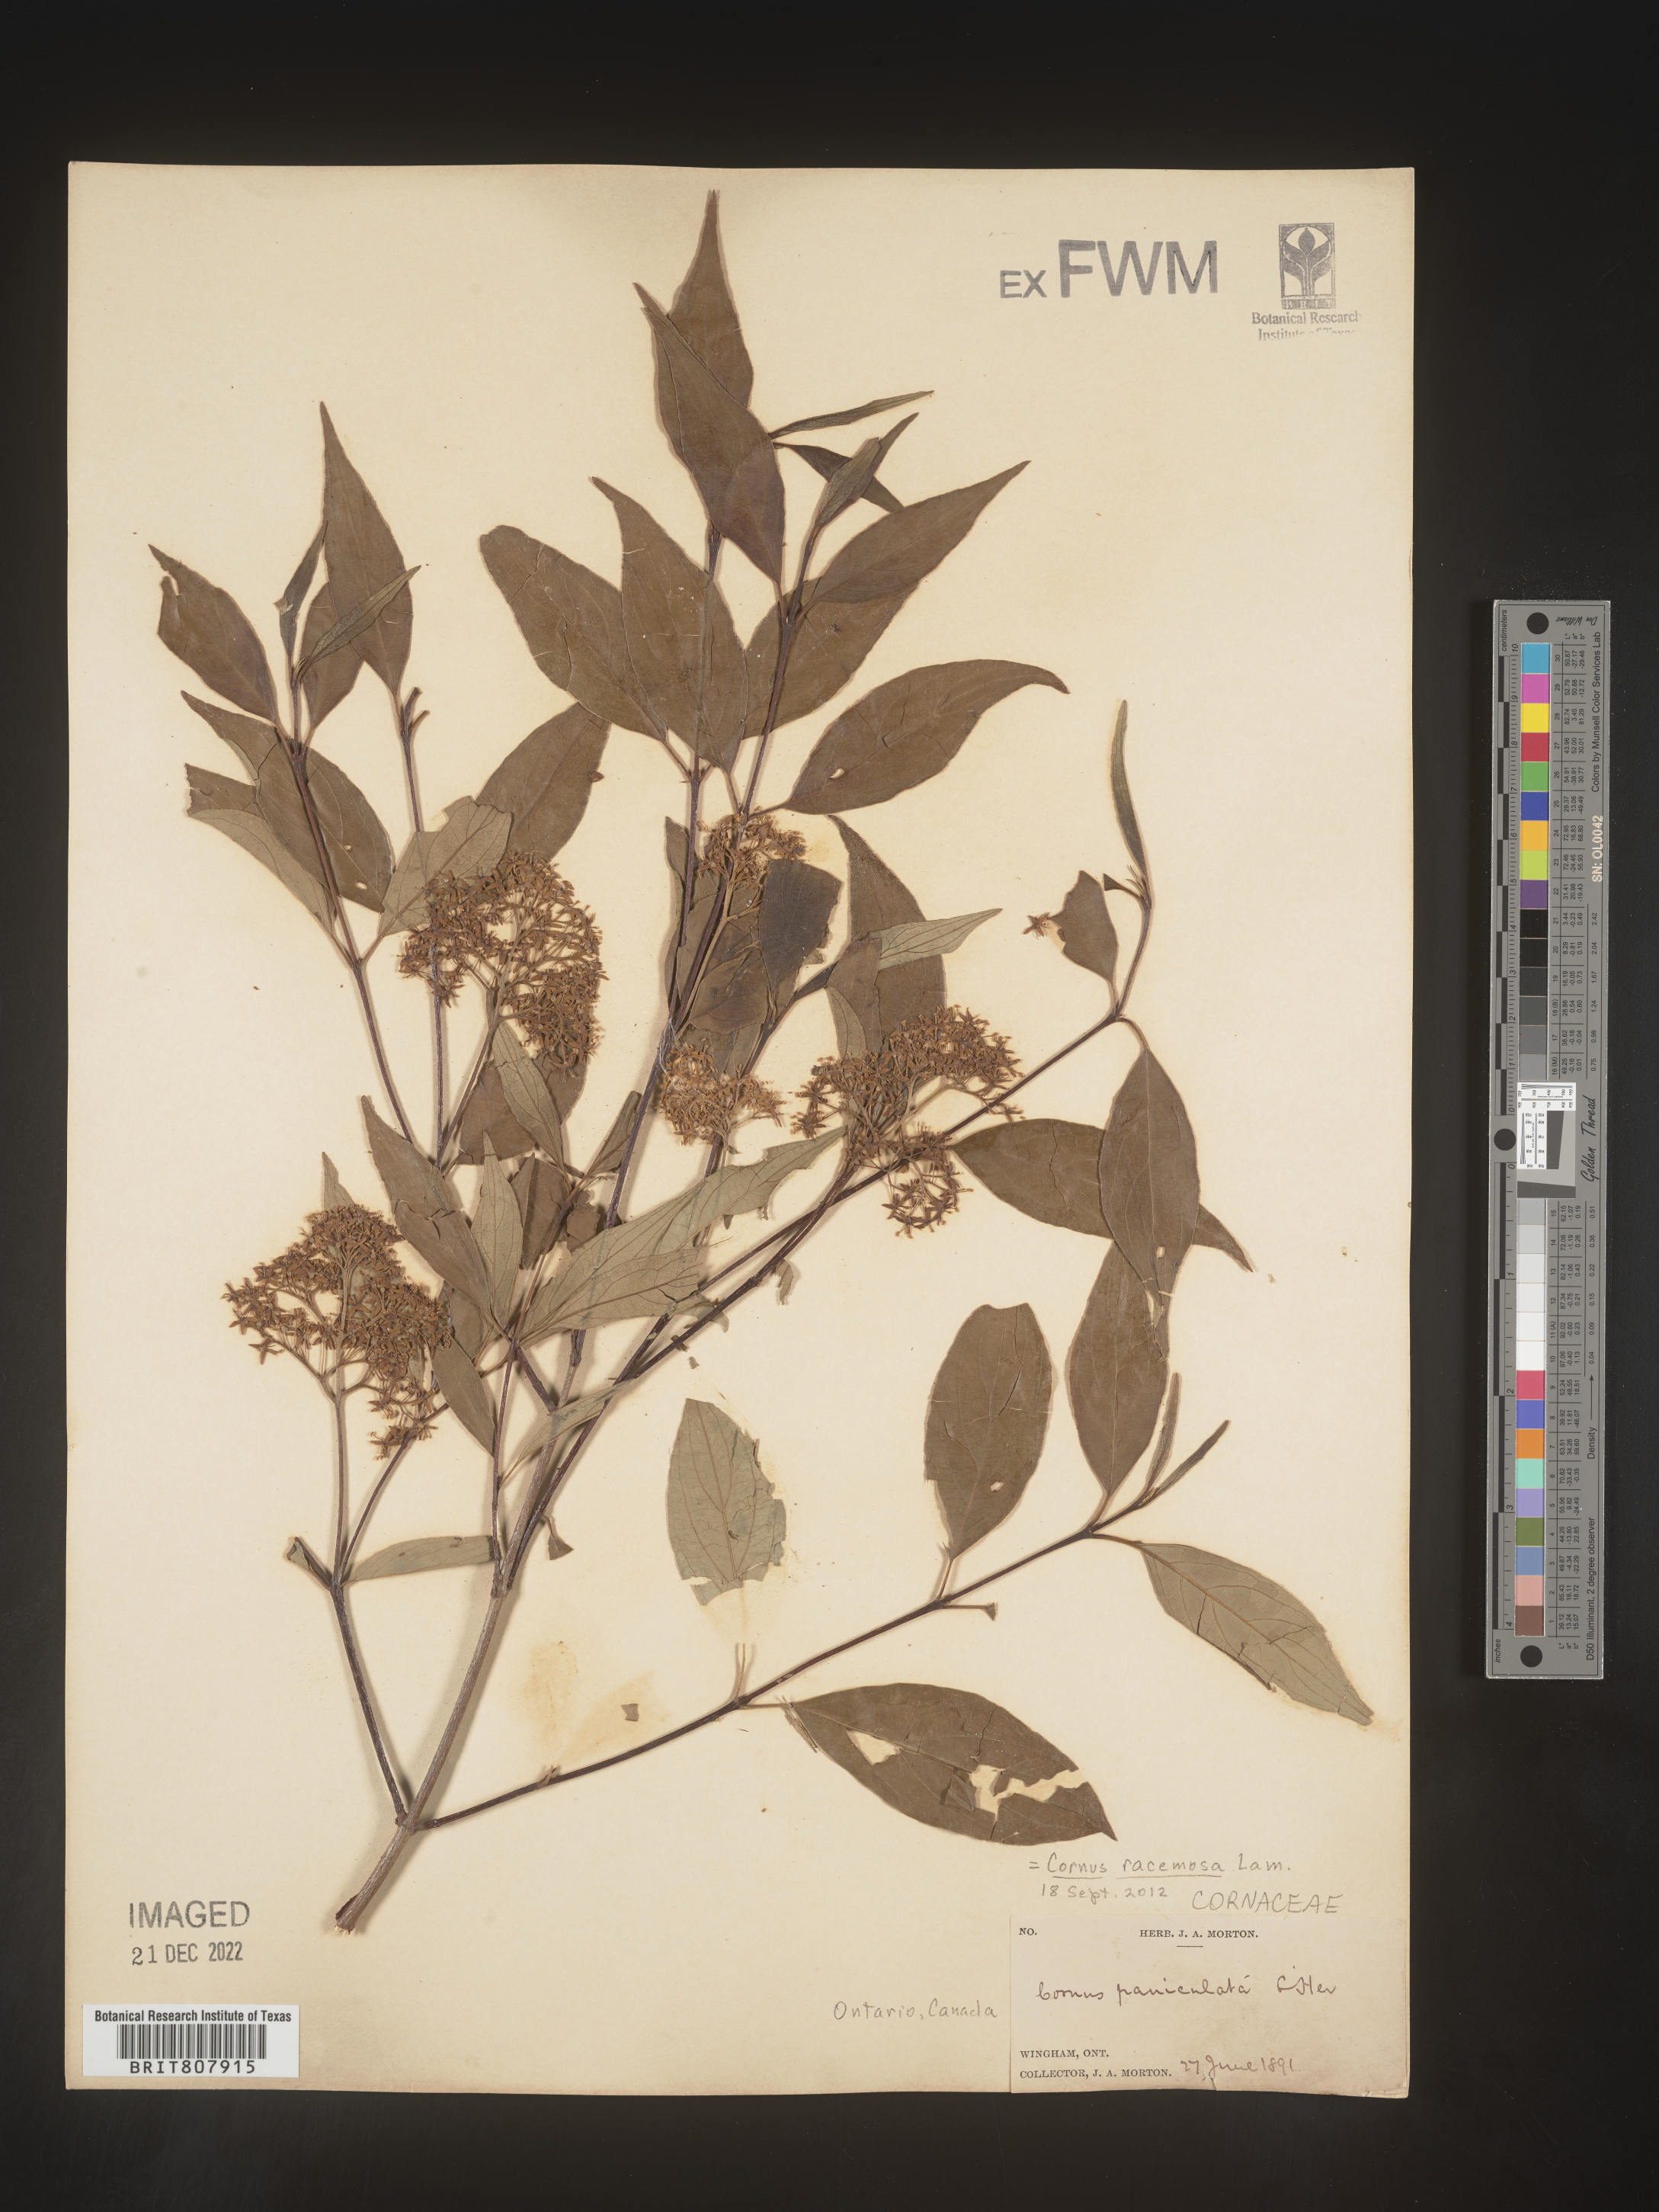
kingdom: Plantae
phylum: Tracheophyta
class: Magnoliopsida
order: Cornales
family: Cornaceae
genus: Cornus
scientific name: Cornus racemosa
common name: Panicled dogwood
